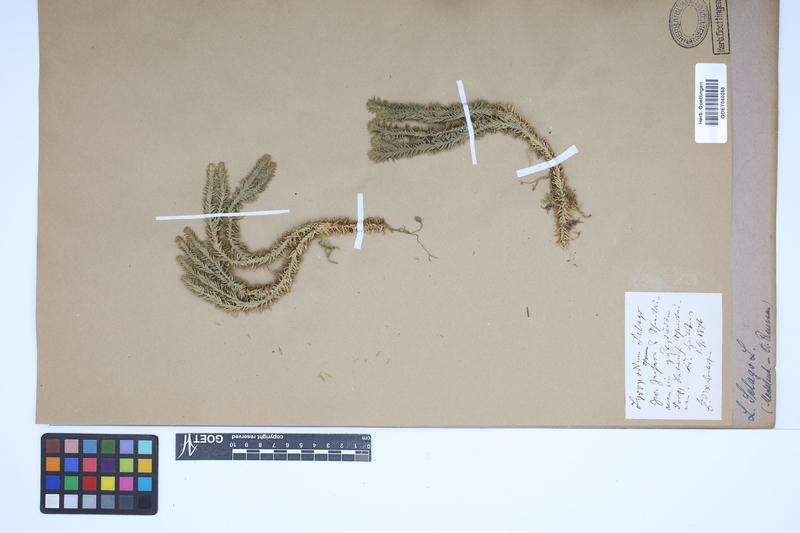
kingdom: Plantae
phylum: Tracheophyta
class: Lycopodiopsida
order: Lycopodiales
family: Lycopodiaceae
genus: Huperzia
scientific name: Huperzia selago
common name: Northern firmoss
